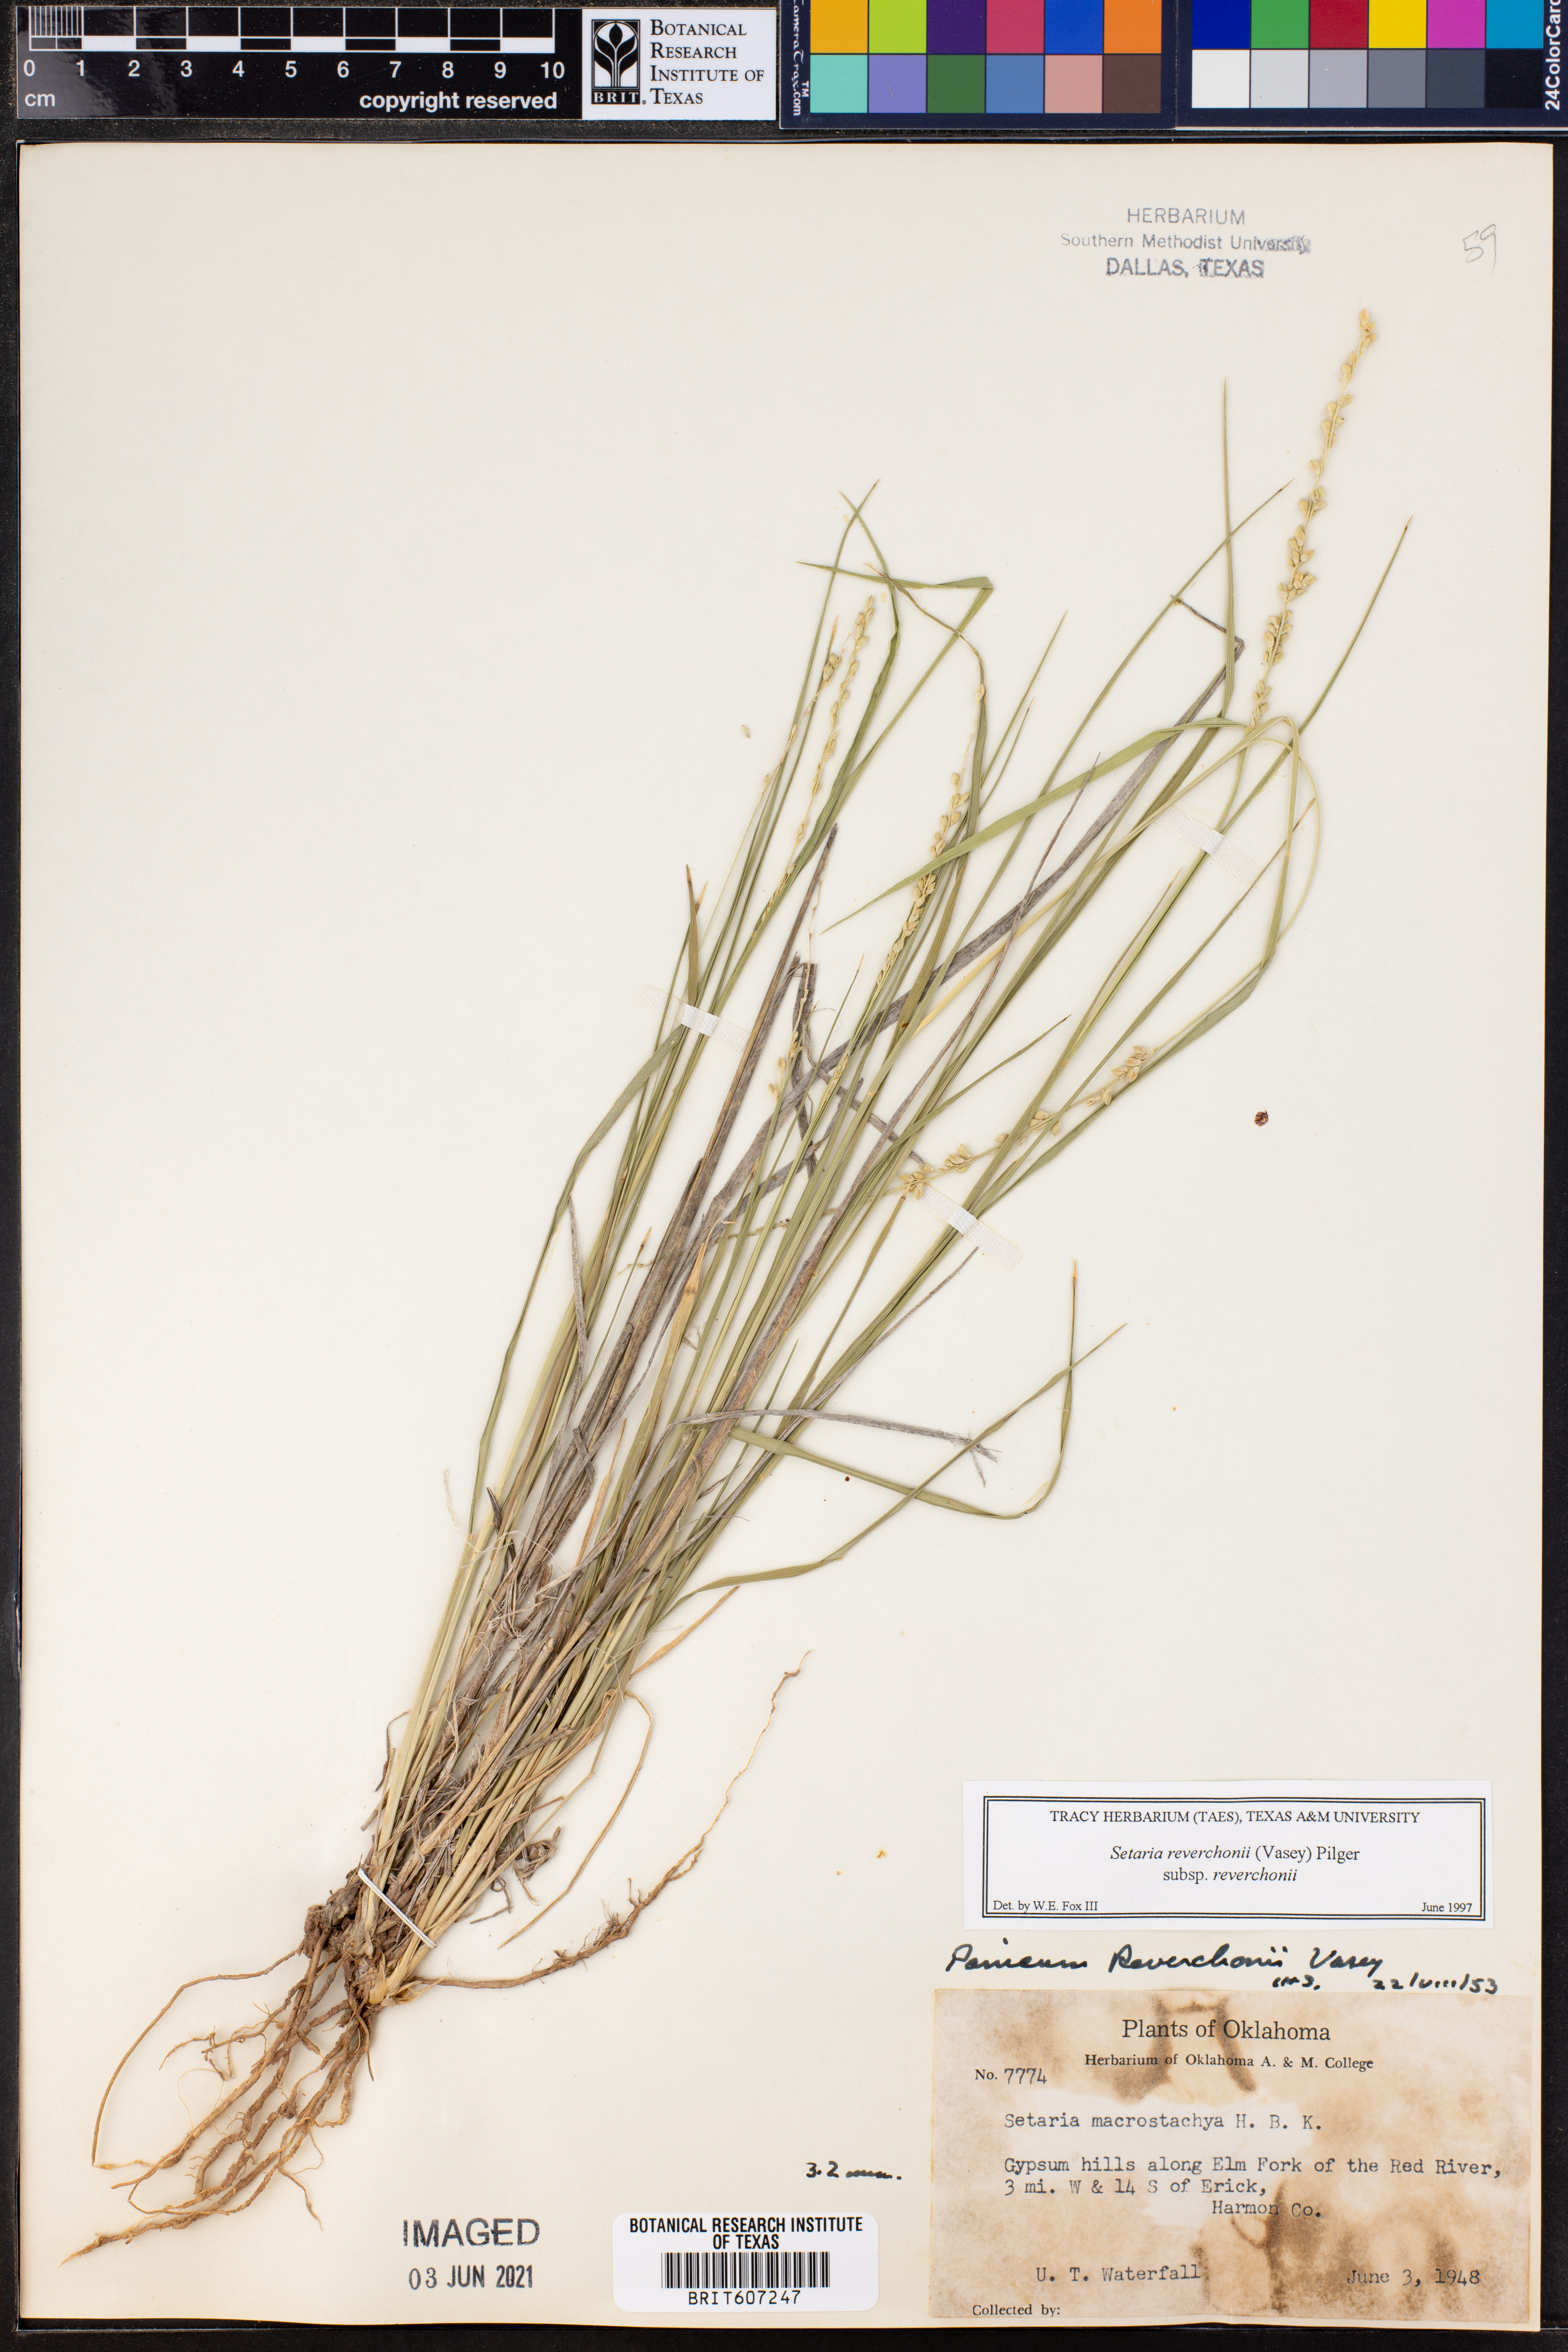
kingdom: Plantae
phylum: Tracheophyta
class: Liliopsida
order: Poales
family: Poaceae
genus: Setaria
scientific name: Setaria reverchonii
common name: Reverchon's bristle grass
